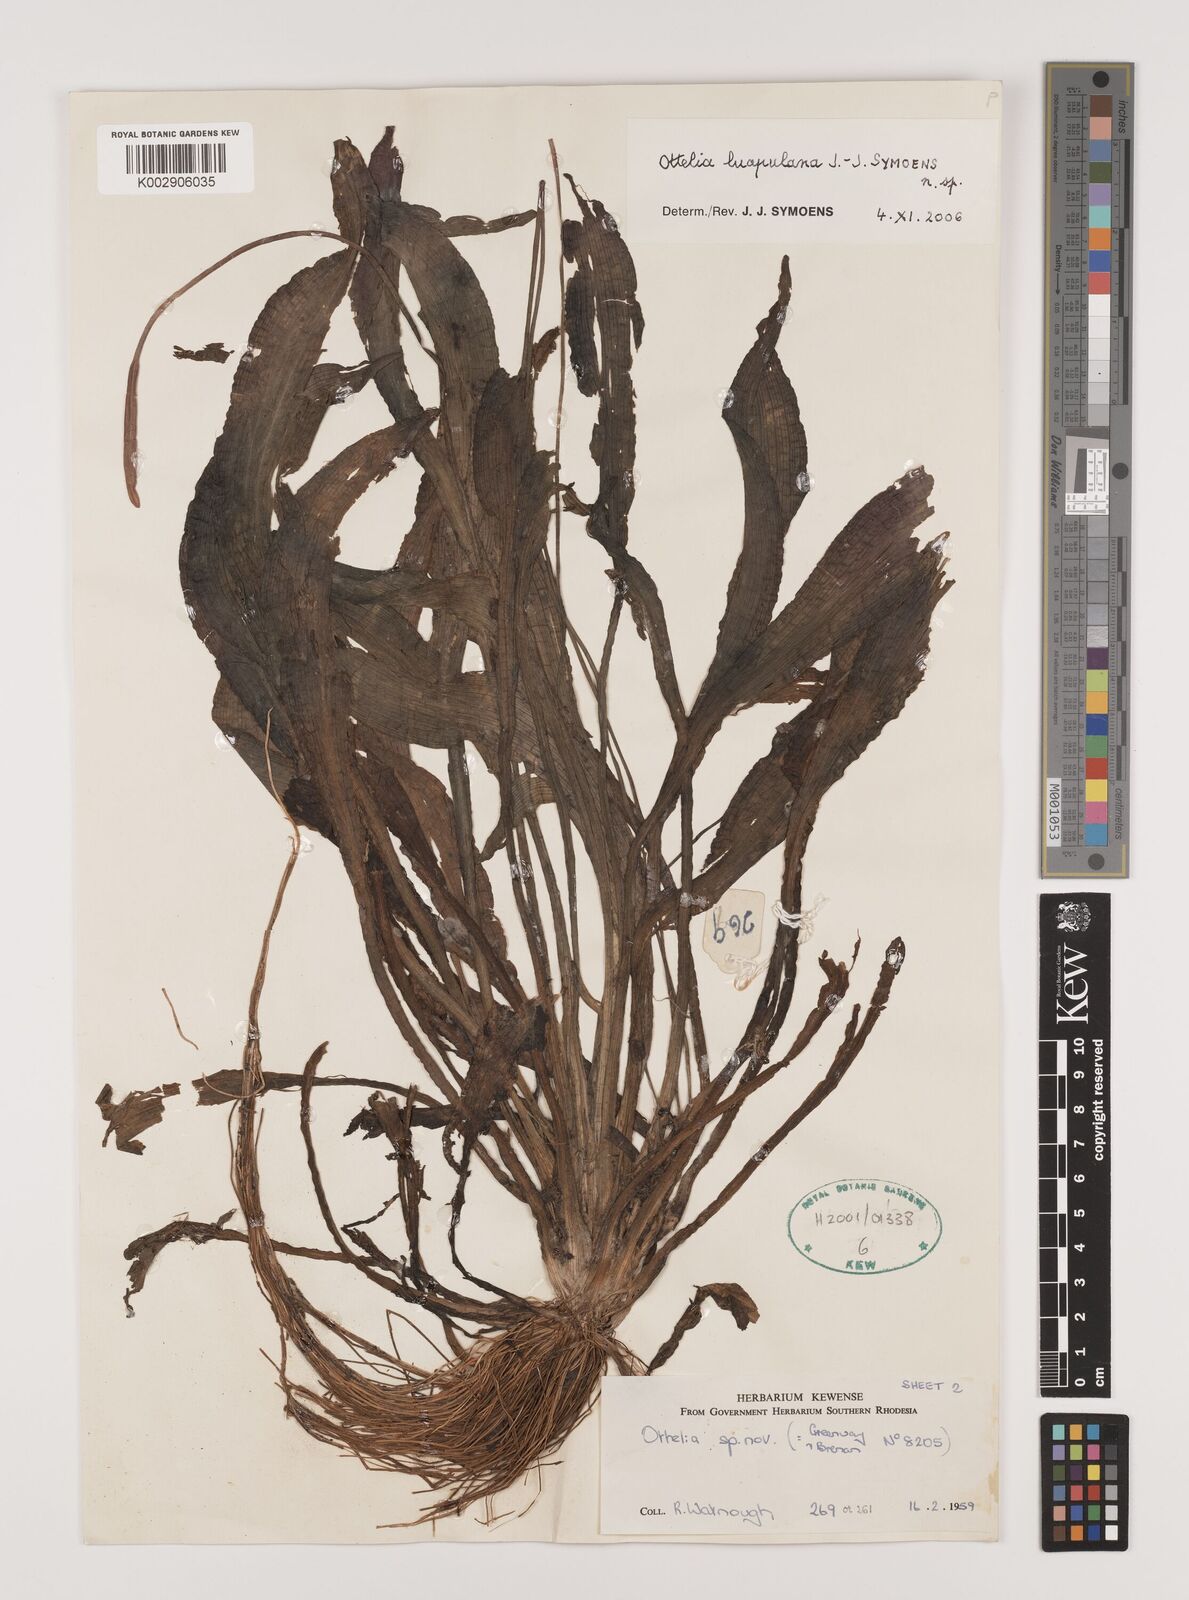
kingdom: Plantae
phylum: Tracheophyta
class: Liliopsida
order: Alismatales
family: Hydrocharitaceae
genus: Ottelia
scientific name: Ottelia obtusifolia
